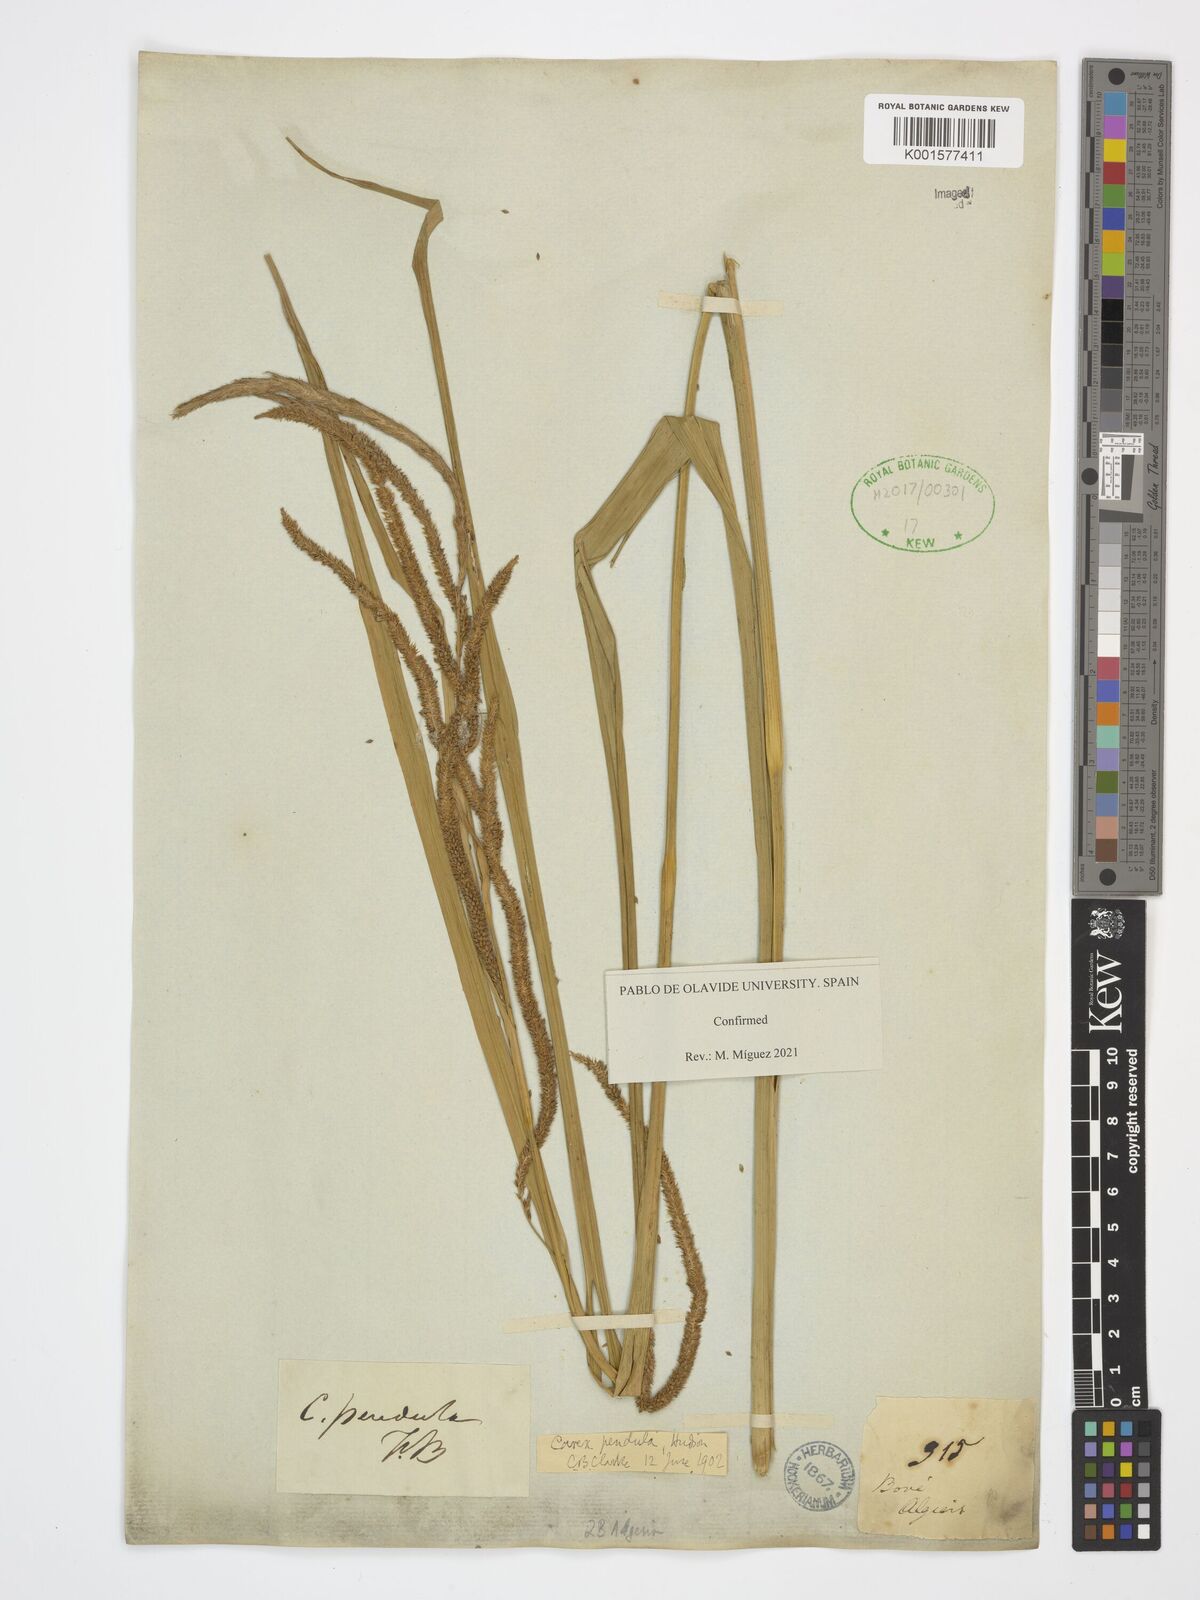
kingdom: Plantae
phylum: Tracheophyta
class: Liliopsida
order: Poales
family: Cyperaceae
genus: Carex
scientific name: Carex pendula
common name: Pendulous sedge
